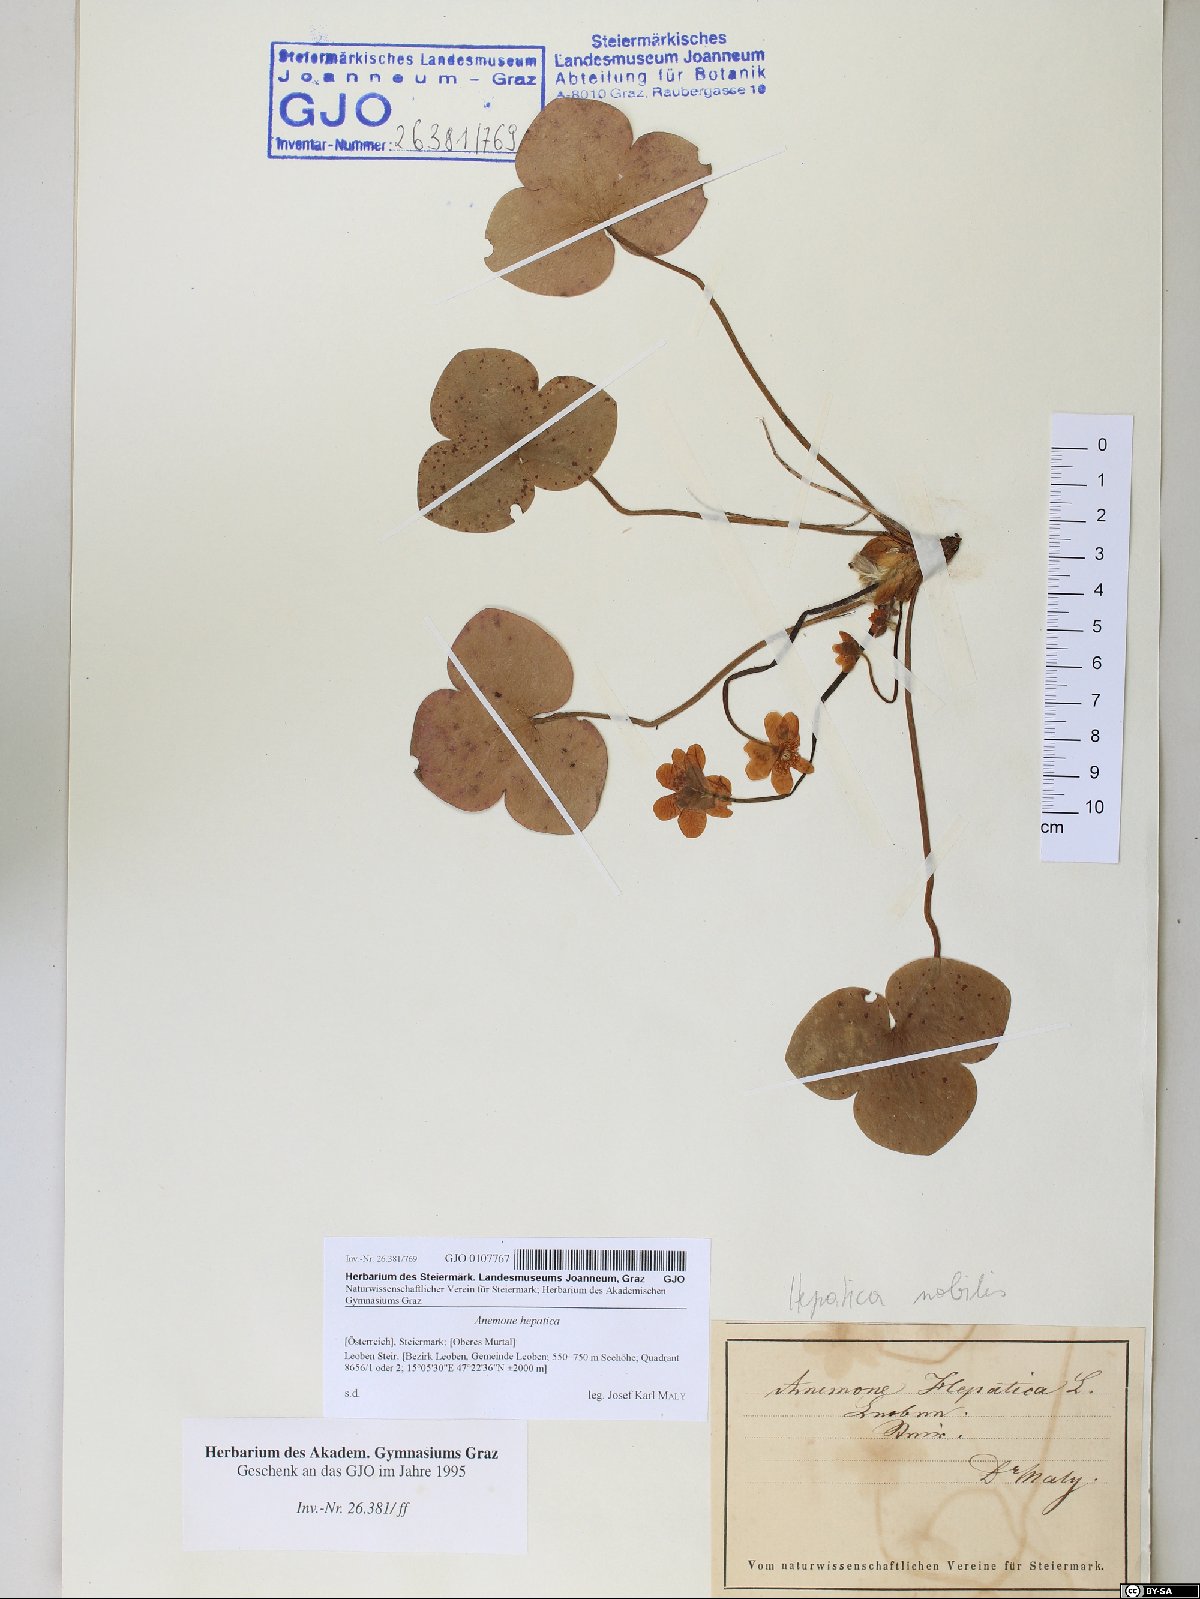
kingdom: Plantae
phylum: Tracheophyta
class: Magnoliopsida
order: Ranunculales
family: Ranunculaceae
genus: Hepatica
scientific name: Hepatica nobilis
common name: Liverleaf
